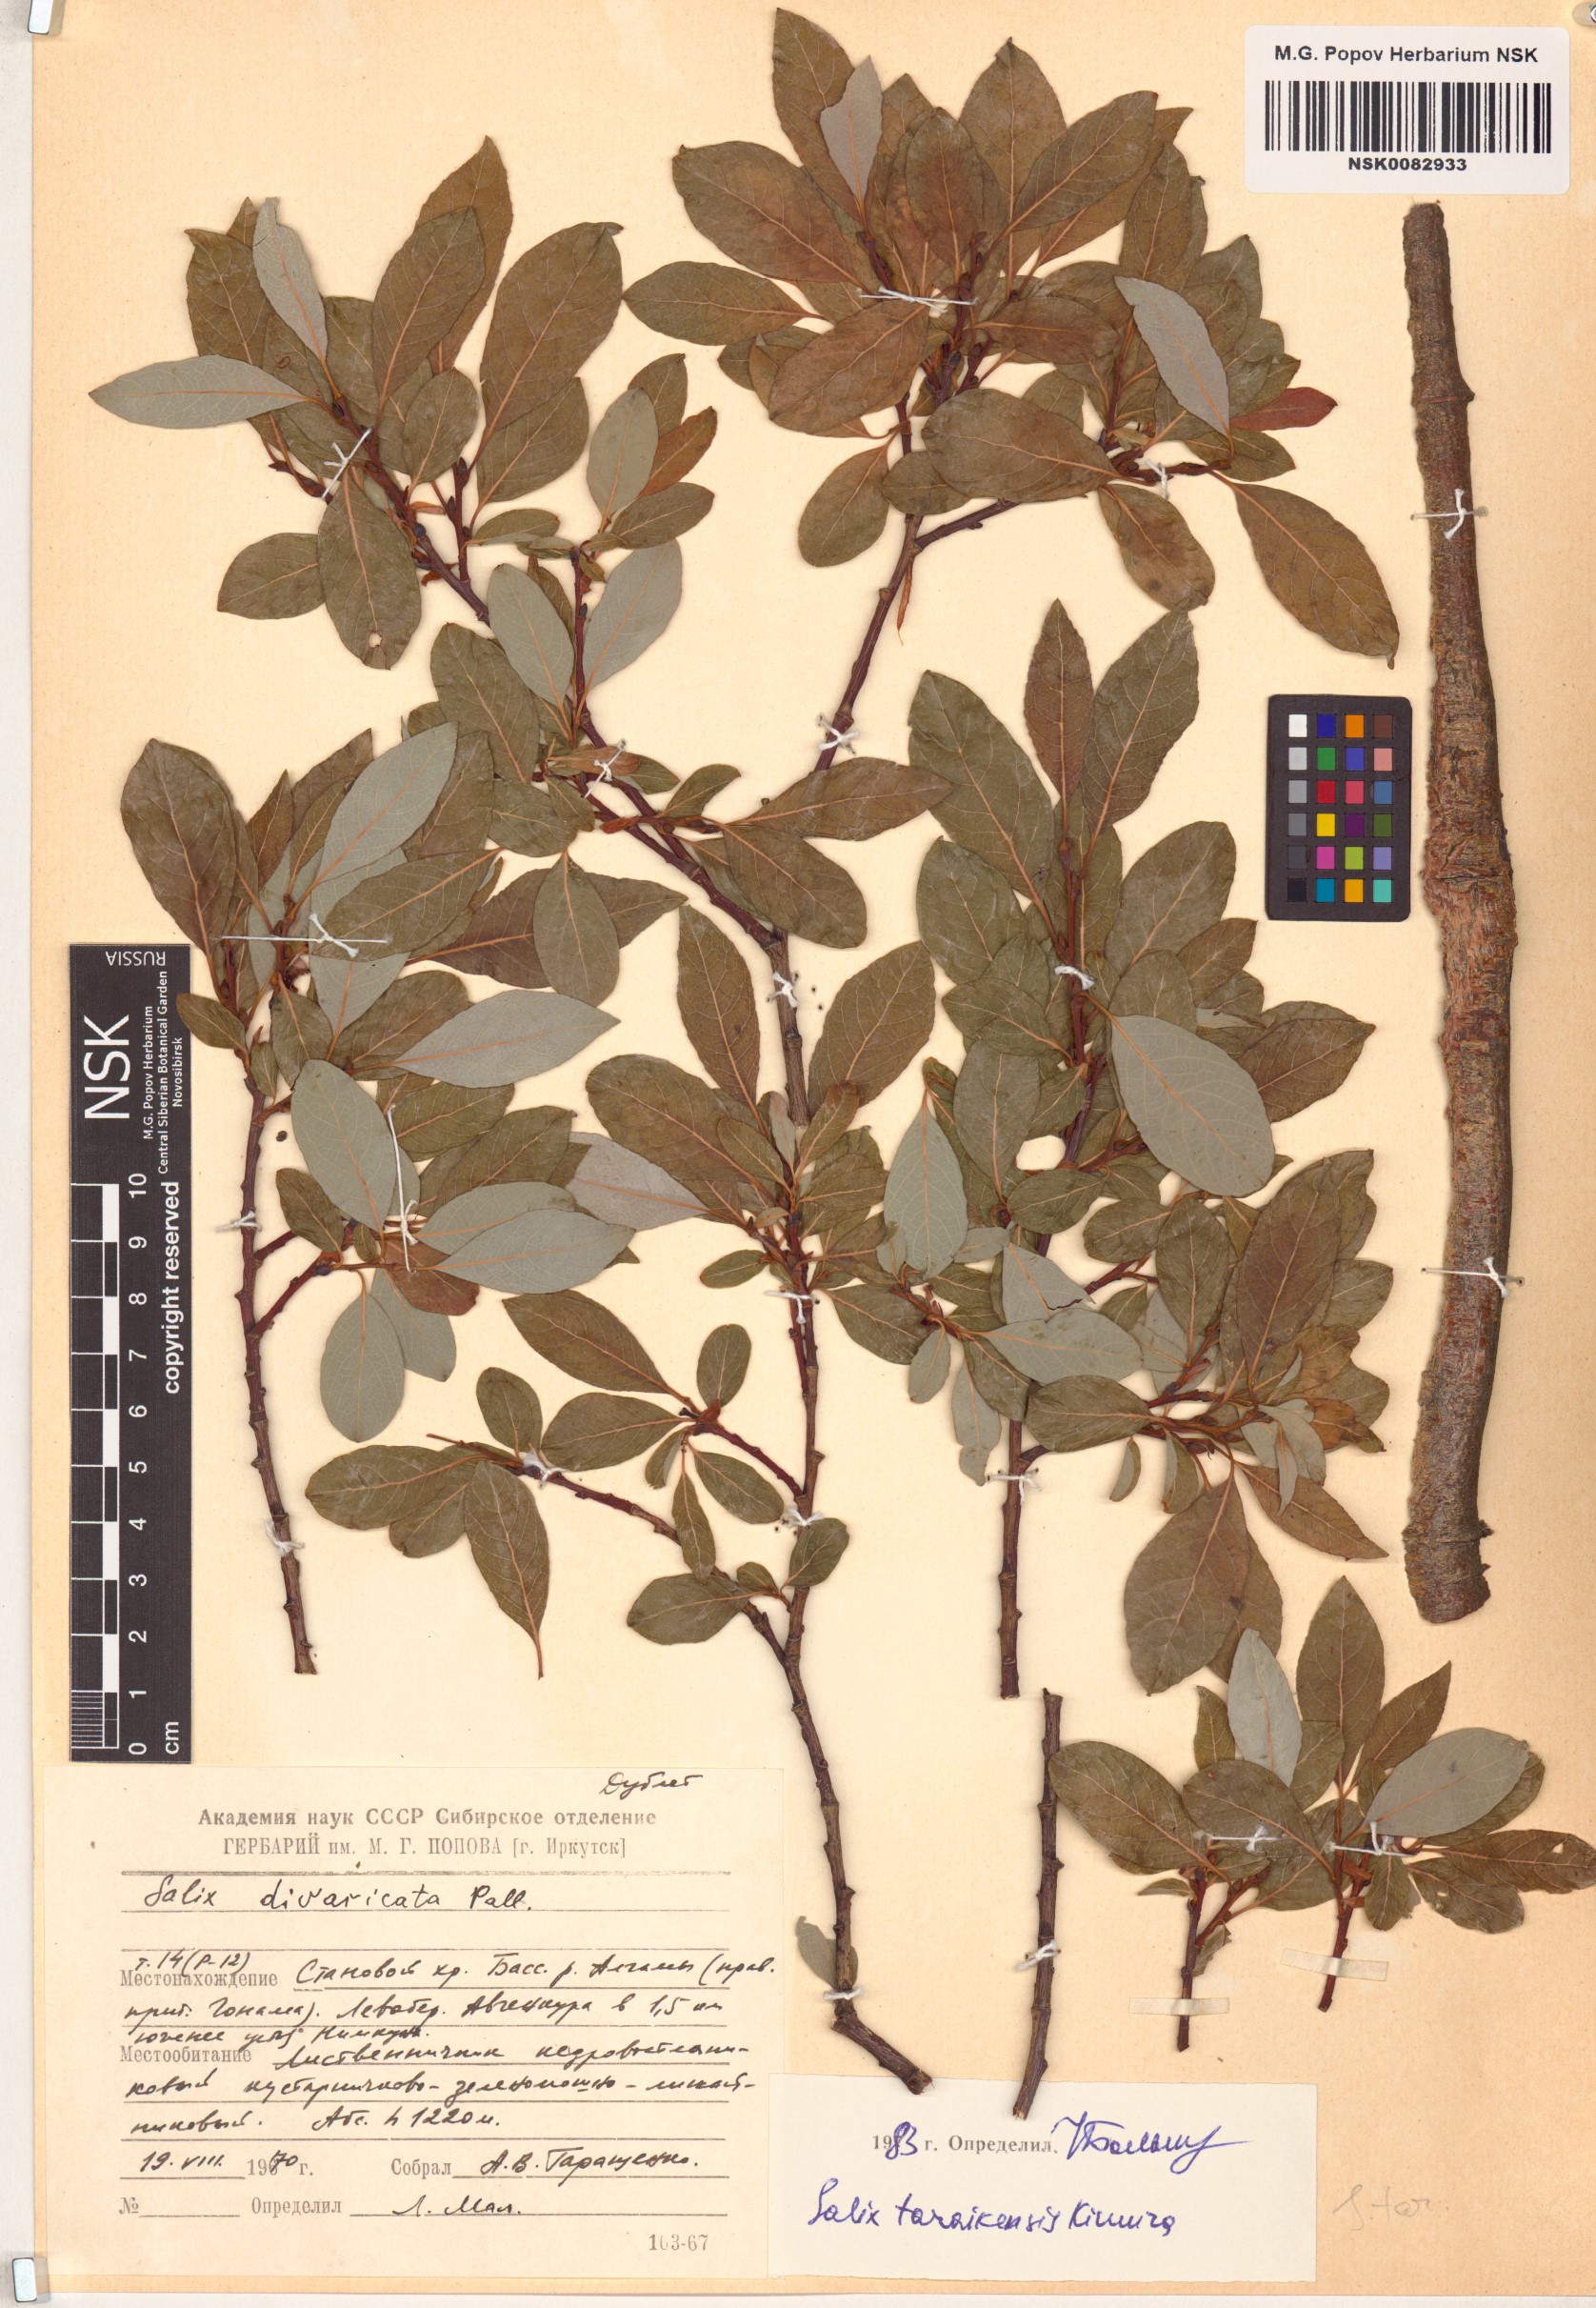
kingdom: Plantae
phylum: Tracheophyta
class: Magnoliopsida
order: Malpighiales
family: Salicaceae
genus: Salix
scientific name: Salix taraikensis
